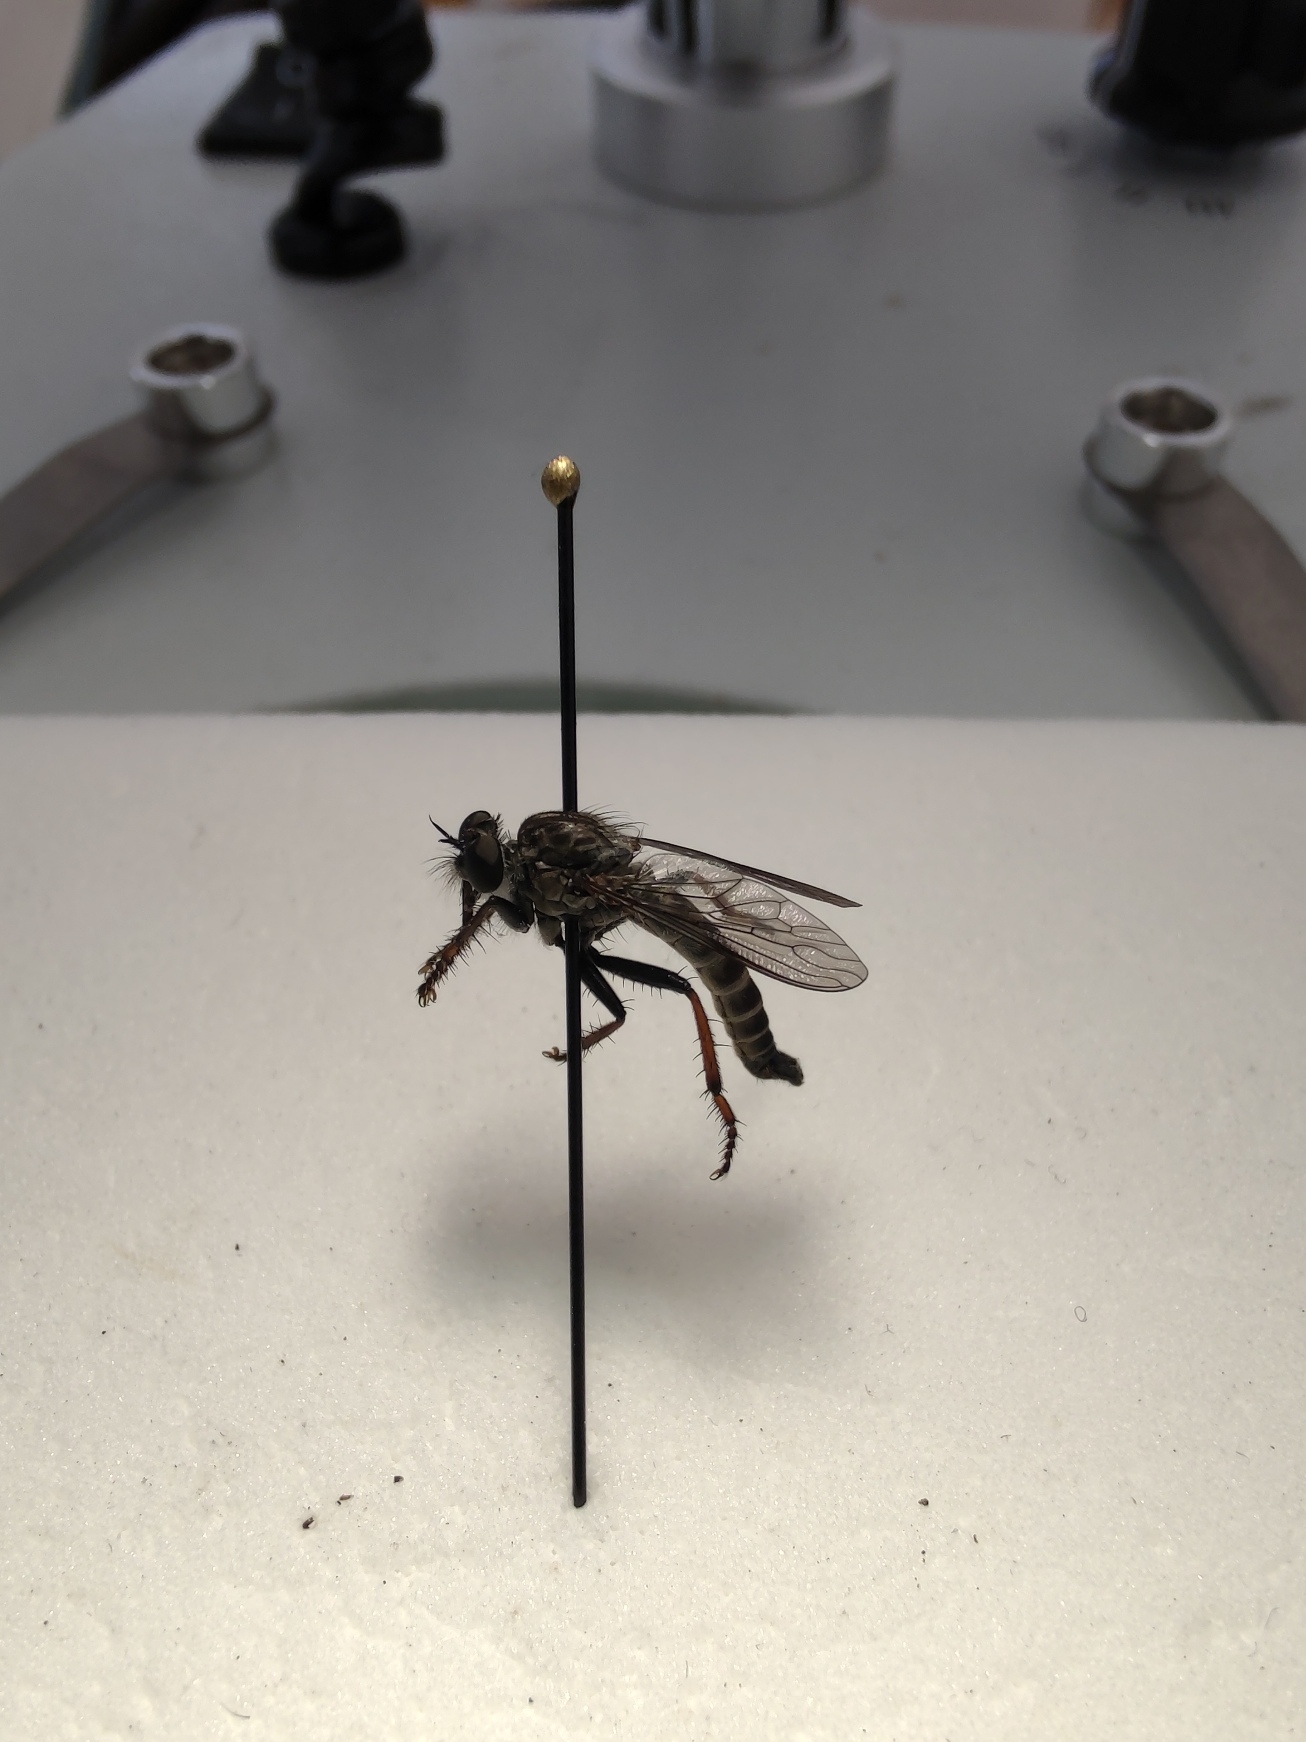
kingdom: Animalia
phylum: Arthropoda
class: Insecta
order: Diptera
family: Asilidae
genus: Rhadiurgus
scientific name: Rhadiurgus variabilis
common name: Nordlig klitrovflue
